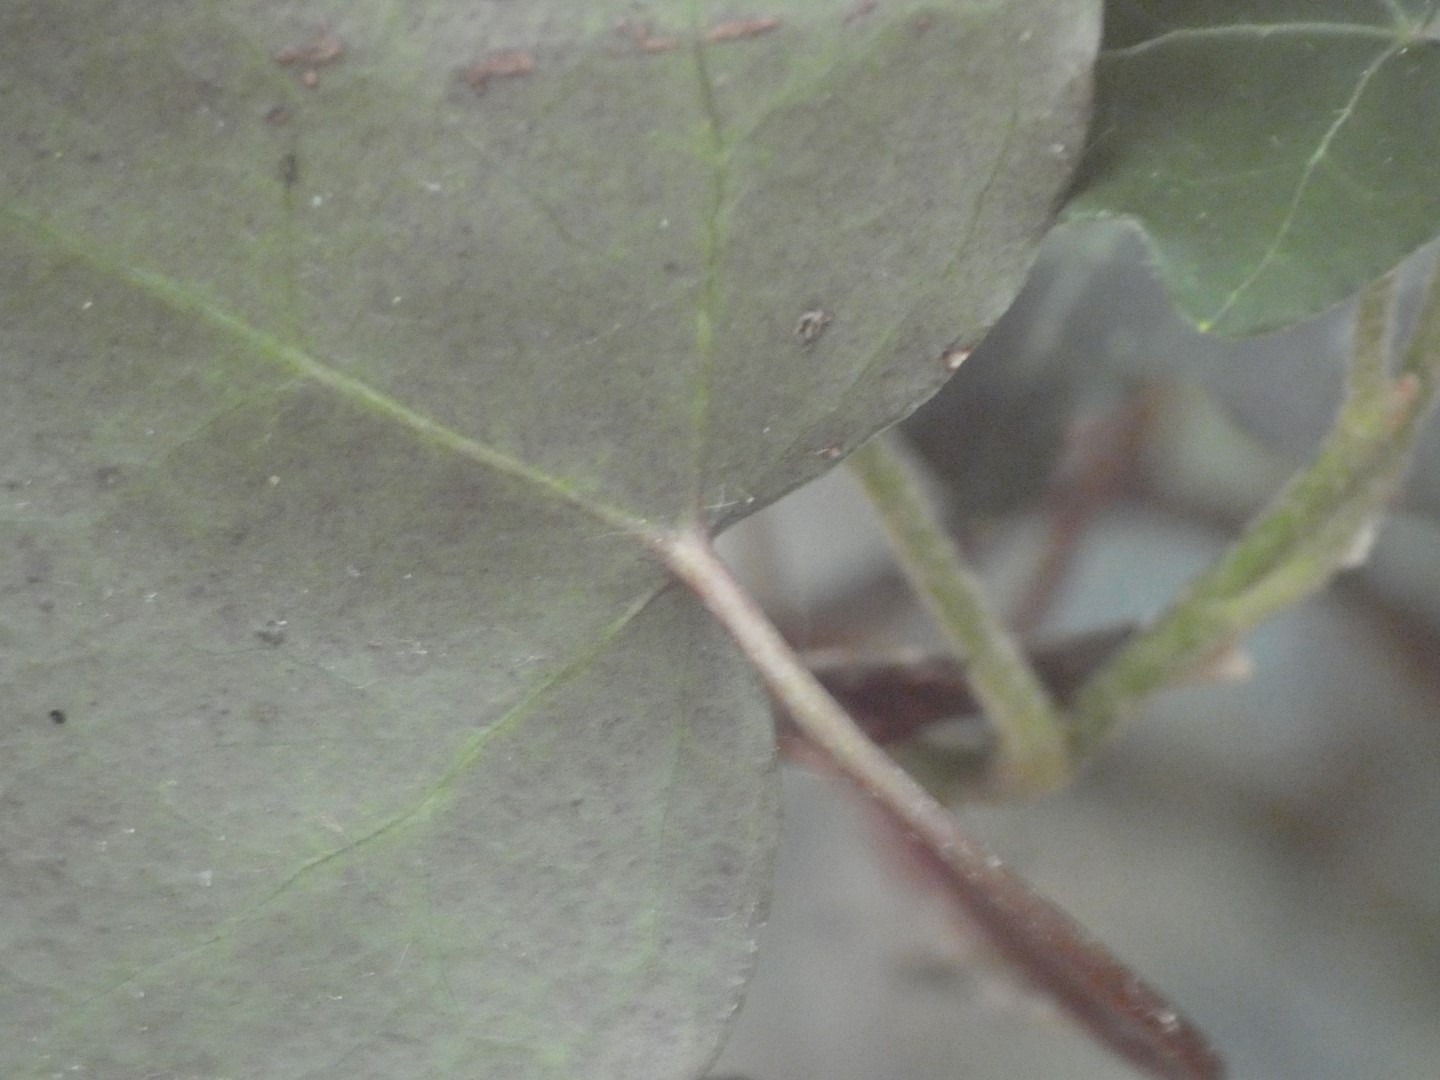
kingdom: Plantae
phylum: Tracheophyta
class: Magnoliopsida
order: Apiales
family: Araliaceae
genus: Hedera
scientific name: Hedera helix
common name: Vedbend
